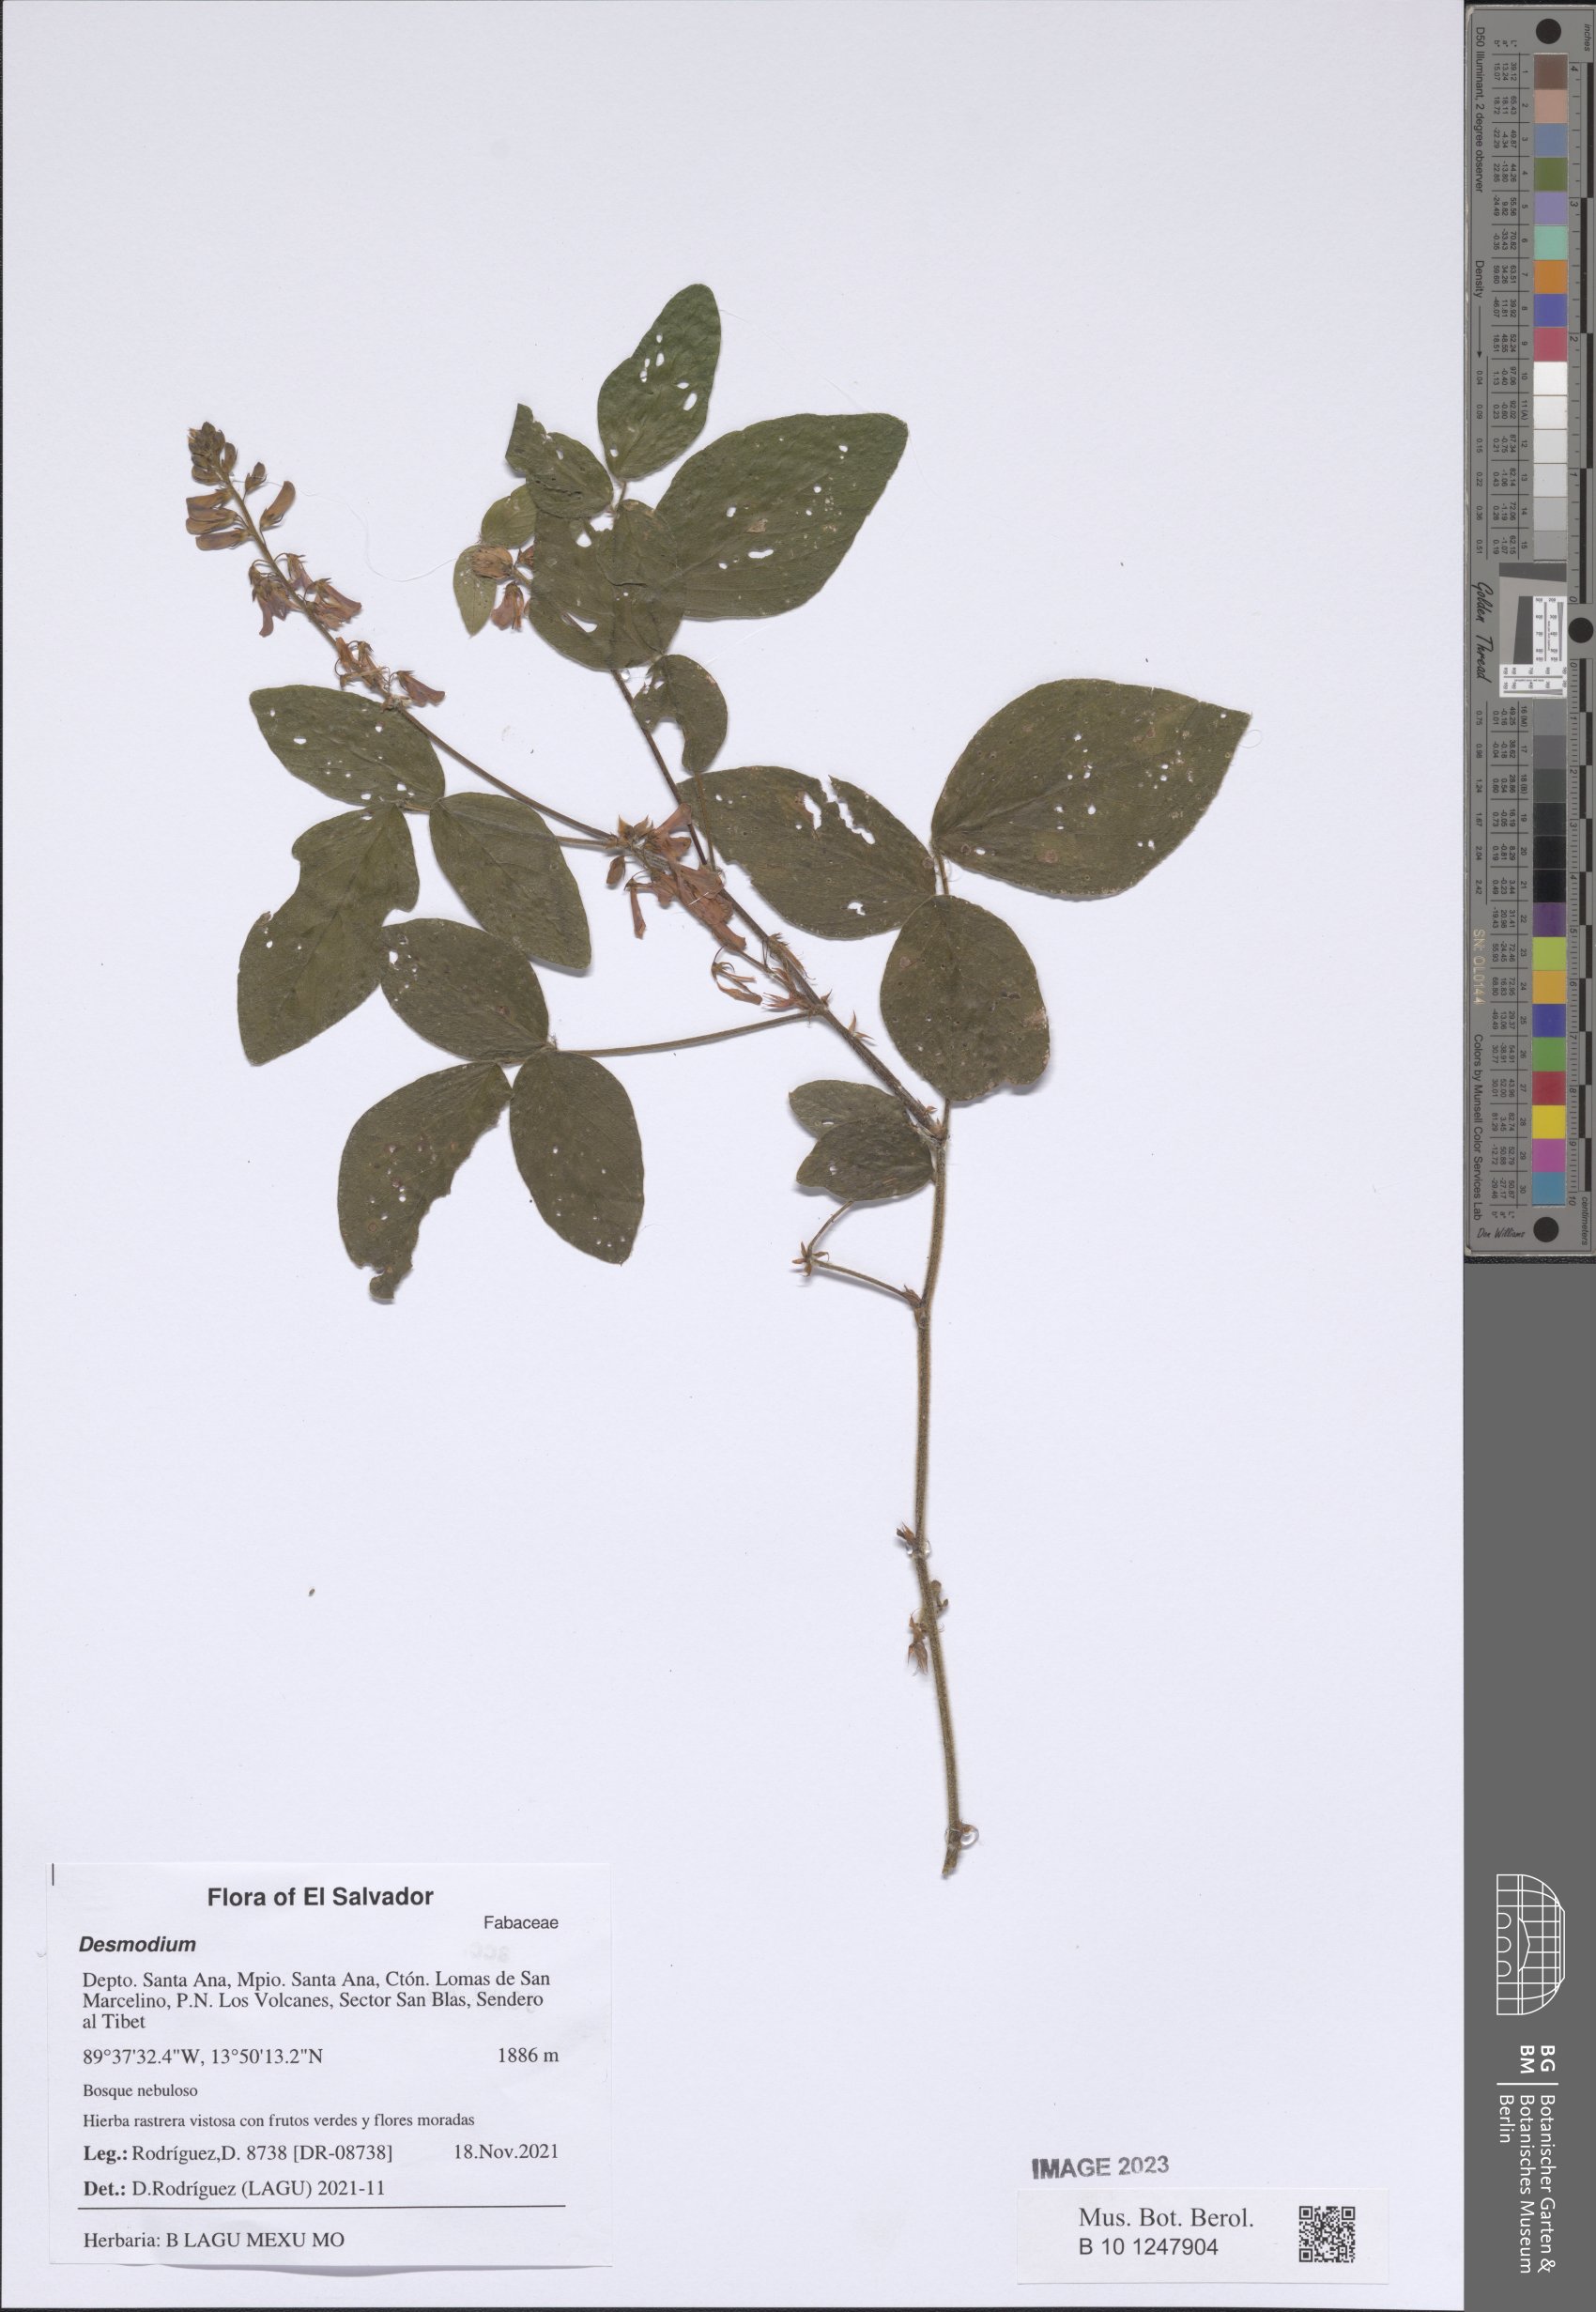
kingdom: Plantae
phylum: Tracheophyta
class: Magnoliopsida
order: Fabales
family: Fabaceae
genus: Desmodium
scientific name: Desmodium
